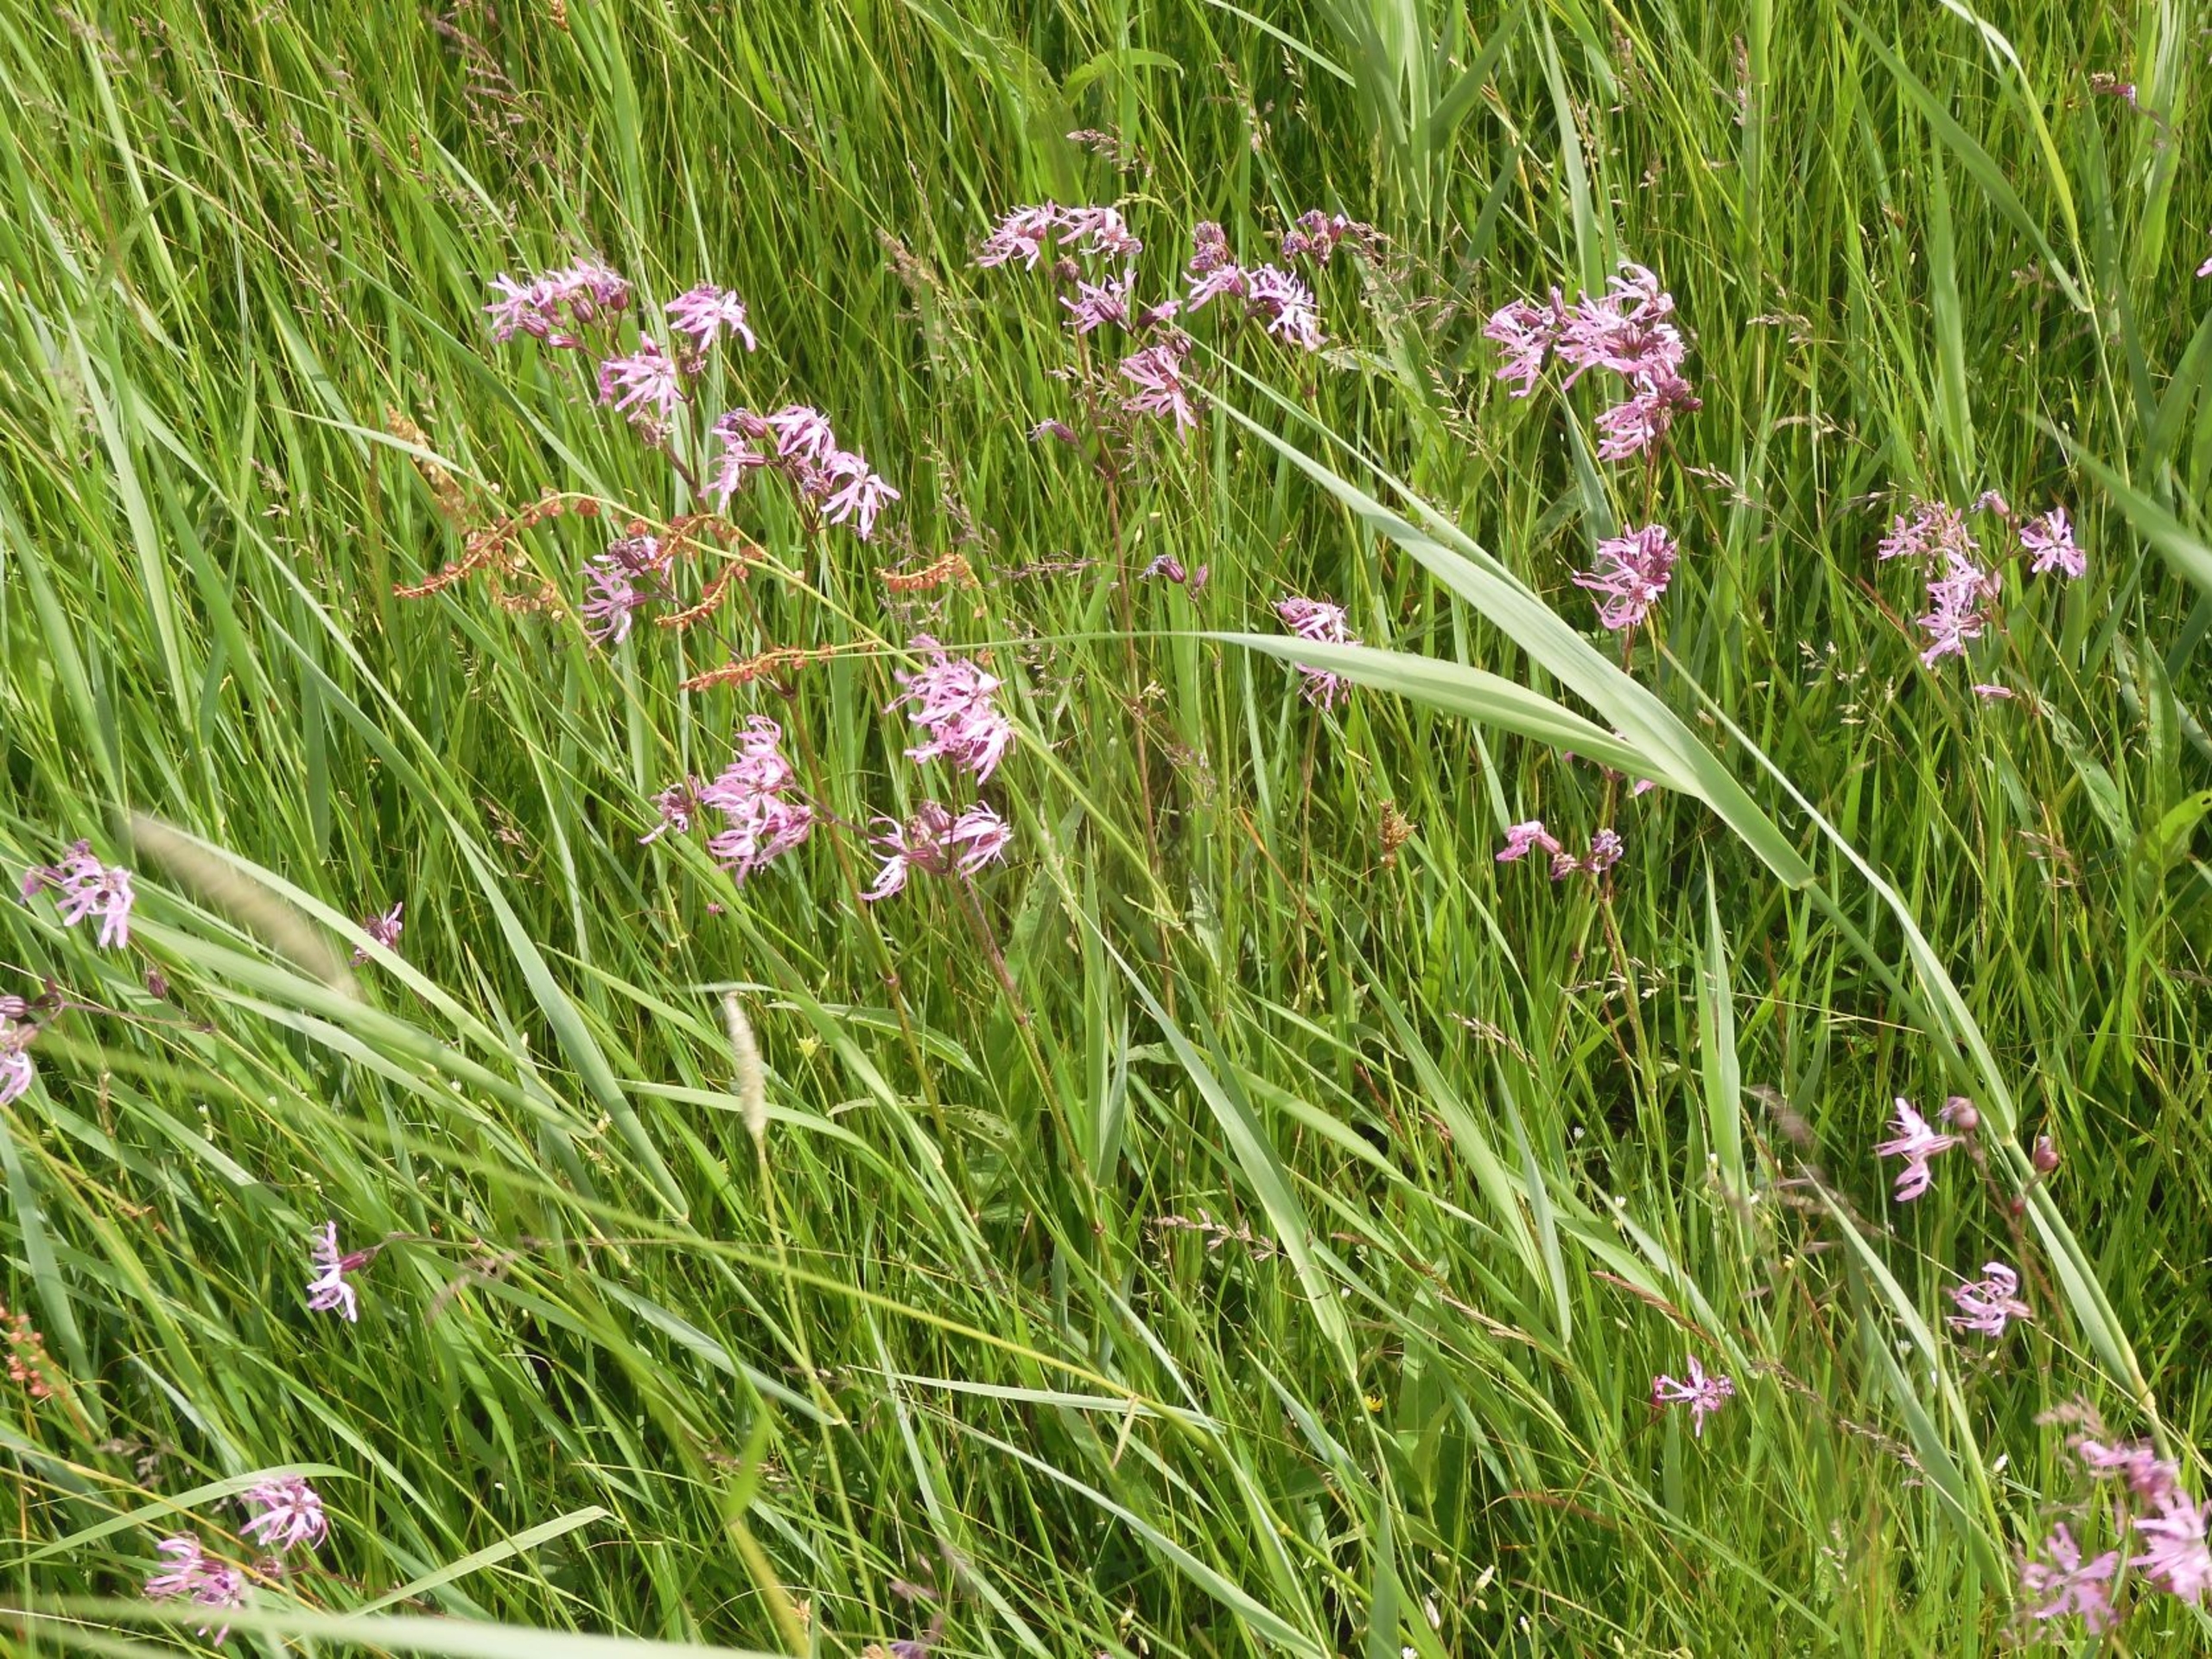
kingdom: Plantae
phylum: Tracheophyta
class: Magnoliopsida
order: Caryophyllales
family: Caryophyllaceae
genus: Silene
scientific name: Silene flos-cuculi
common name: Trævlekrone
